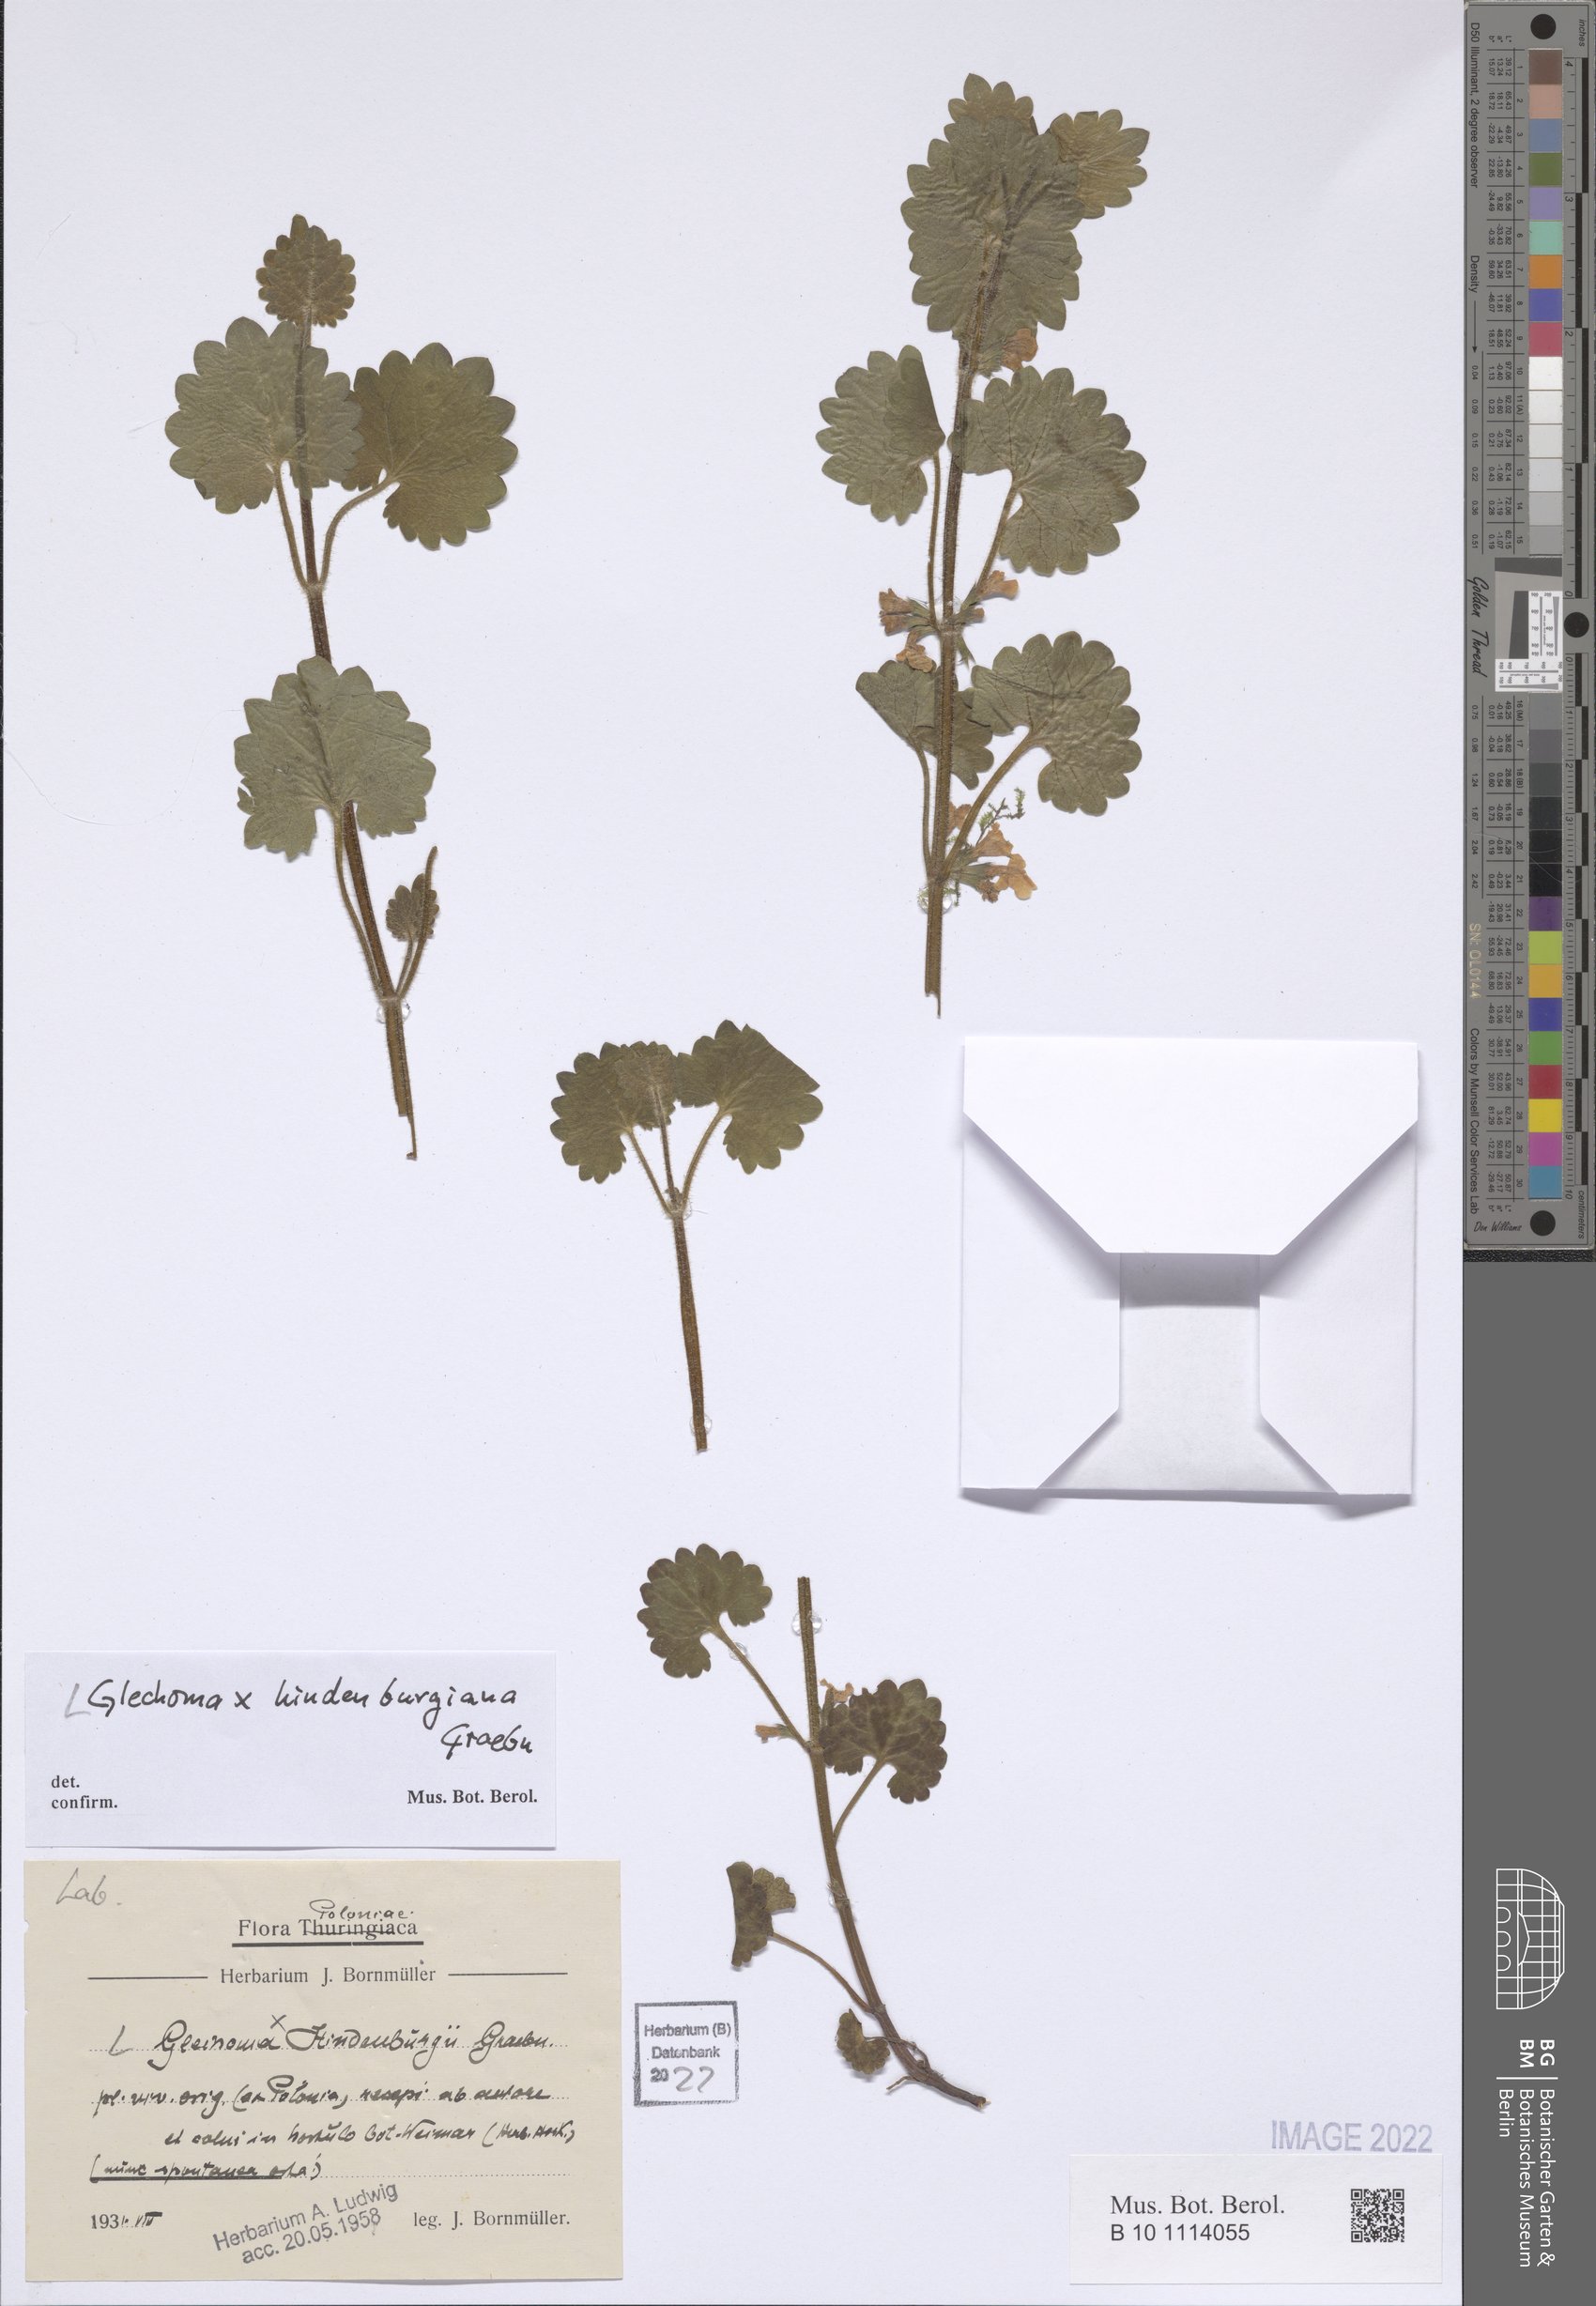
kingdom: Plantae
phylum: Tracheophyta
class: Magnoliopsida
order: Lamiales
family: Lamiaceae
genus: Glechoma
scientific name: Glechoma pannonica
